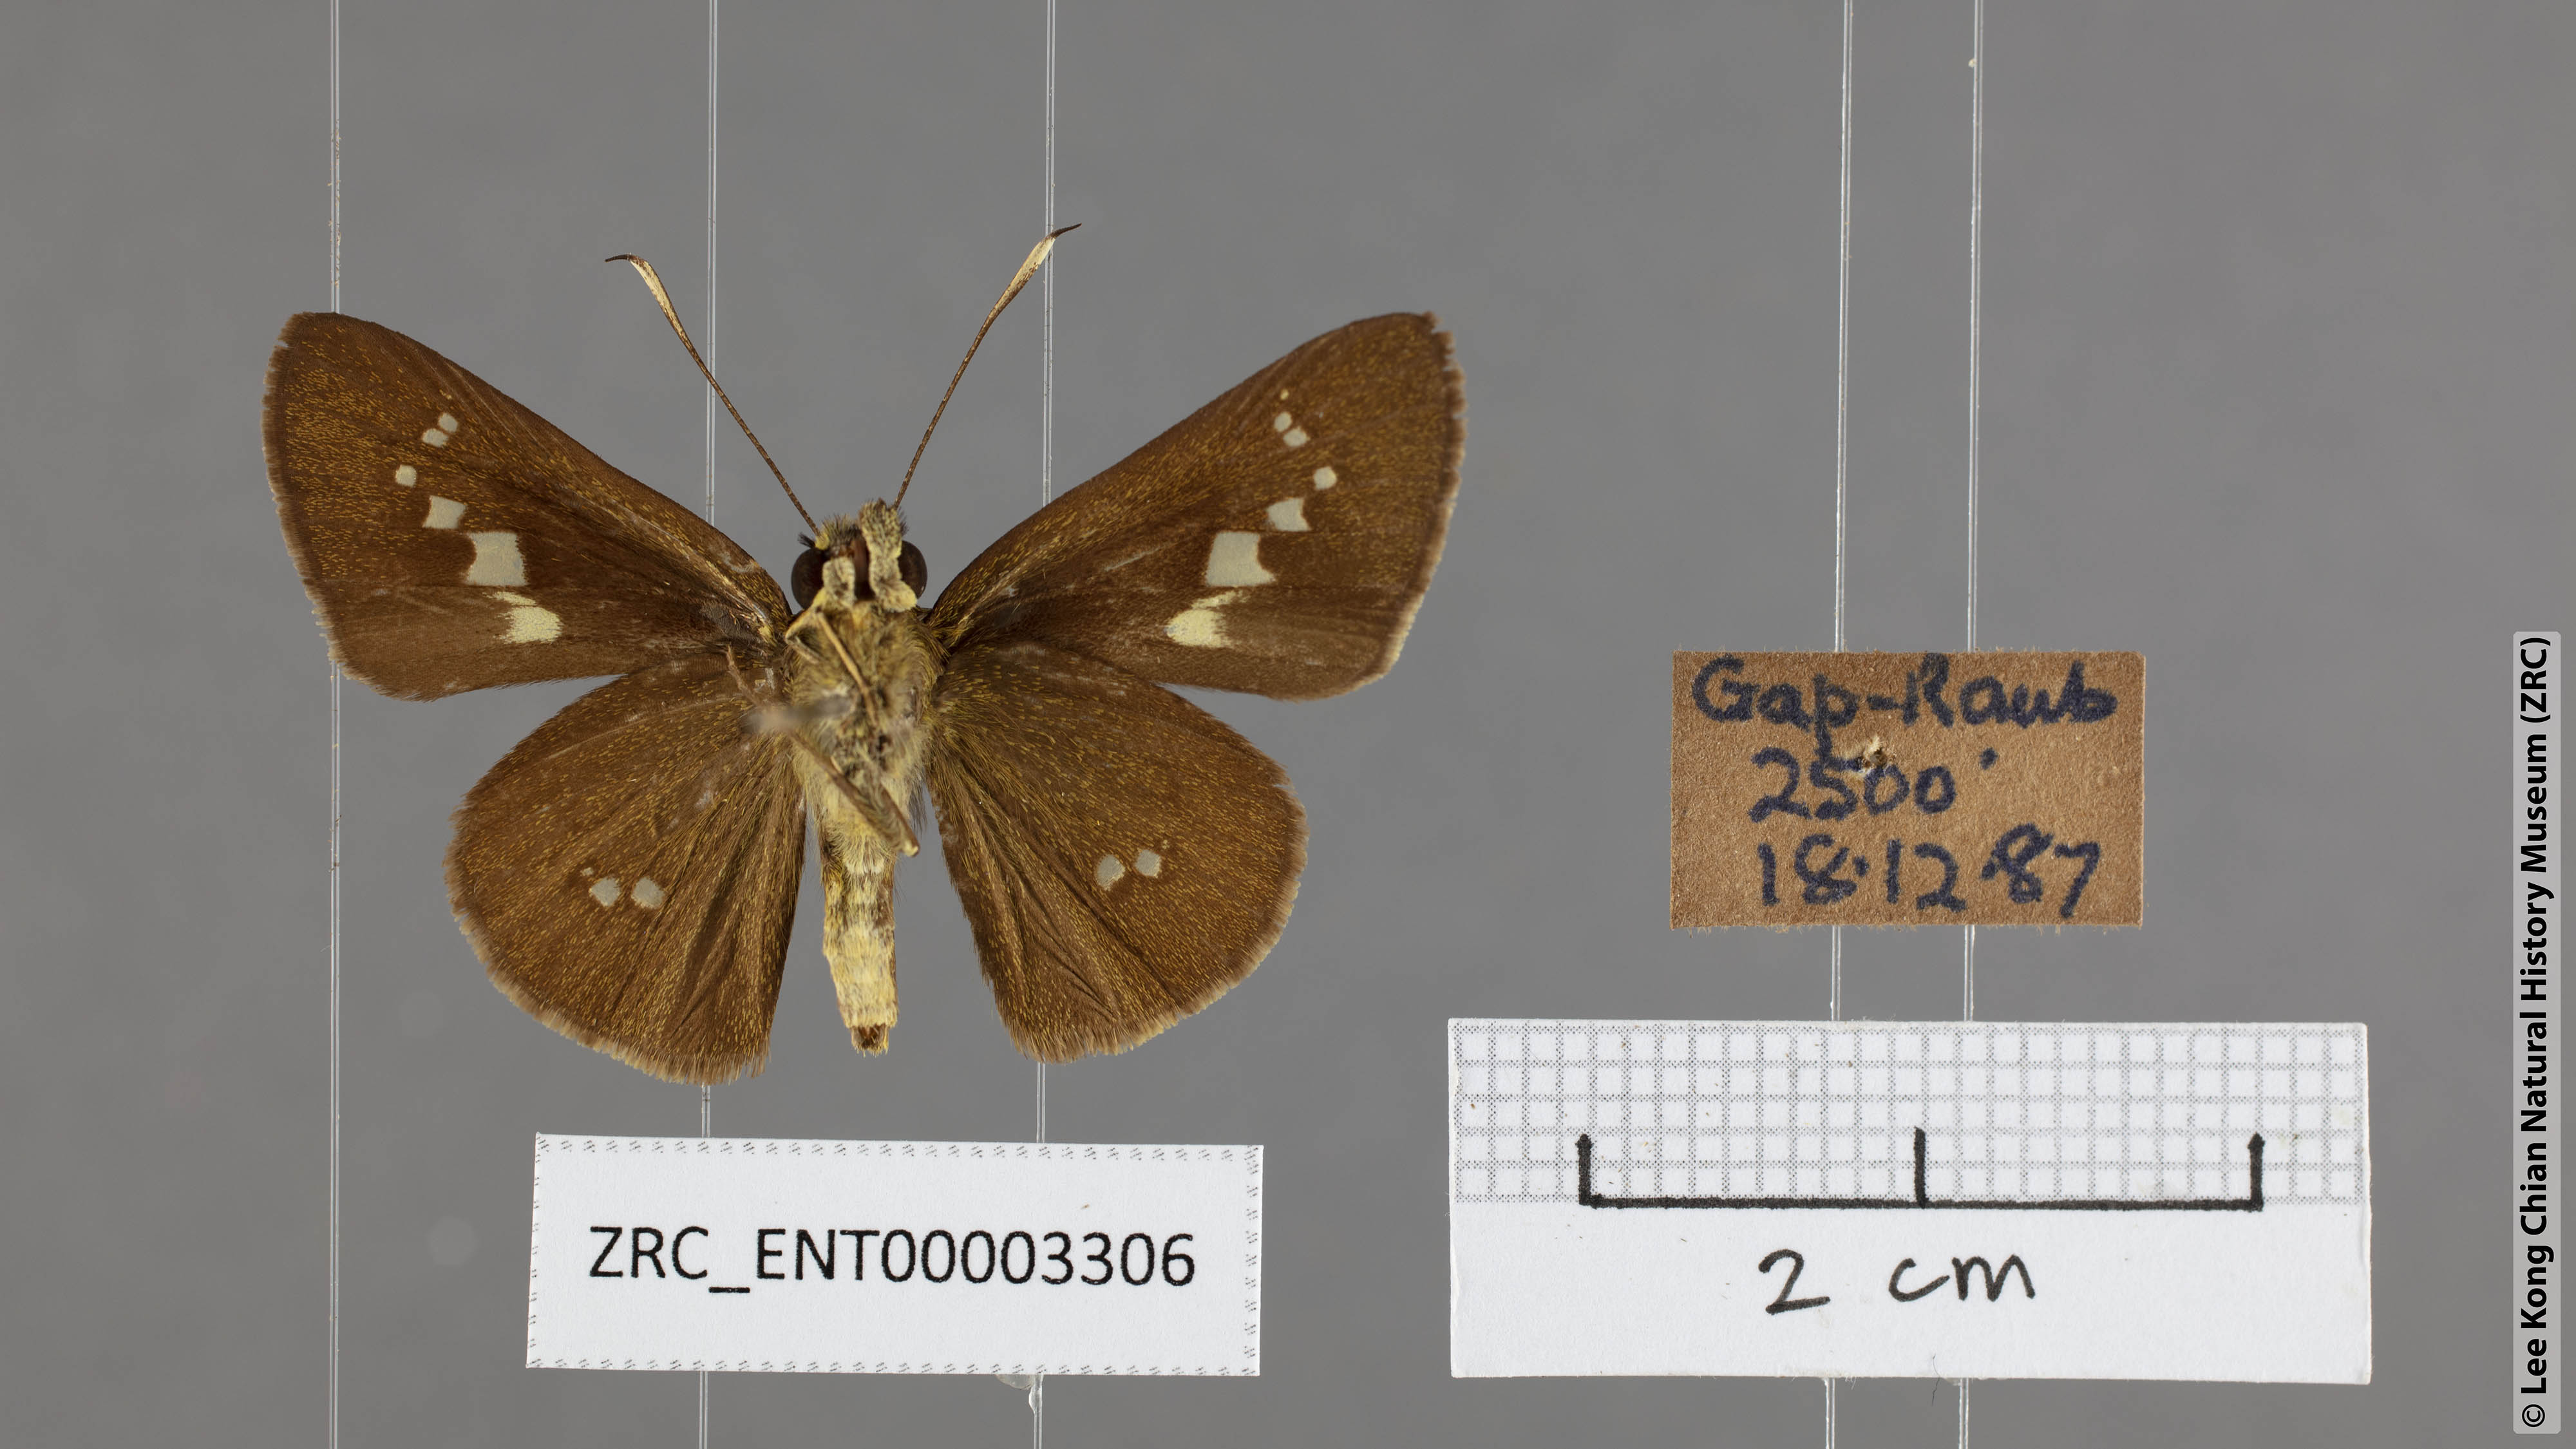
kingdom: Animalia
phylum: Arthropoda
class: Insecta
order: Lepidoptera
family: Hesperiidae
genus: Isma
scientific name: Isma feralia
